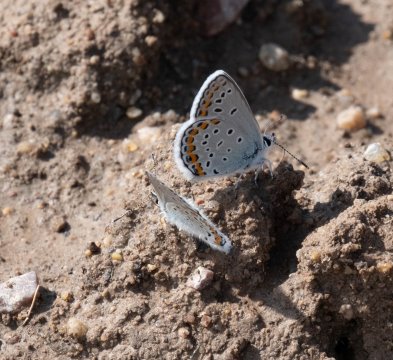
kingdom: Animalia
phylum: Arthropoda
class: Insecta
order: Lepidoptera
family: Lycaenidae
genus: Lycaeides
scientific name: Lycaeides melissa
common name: Melissa Blue
